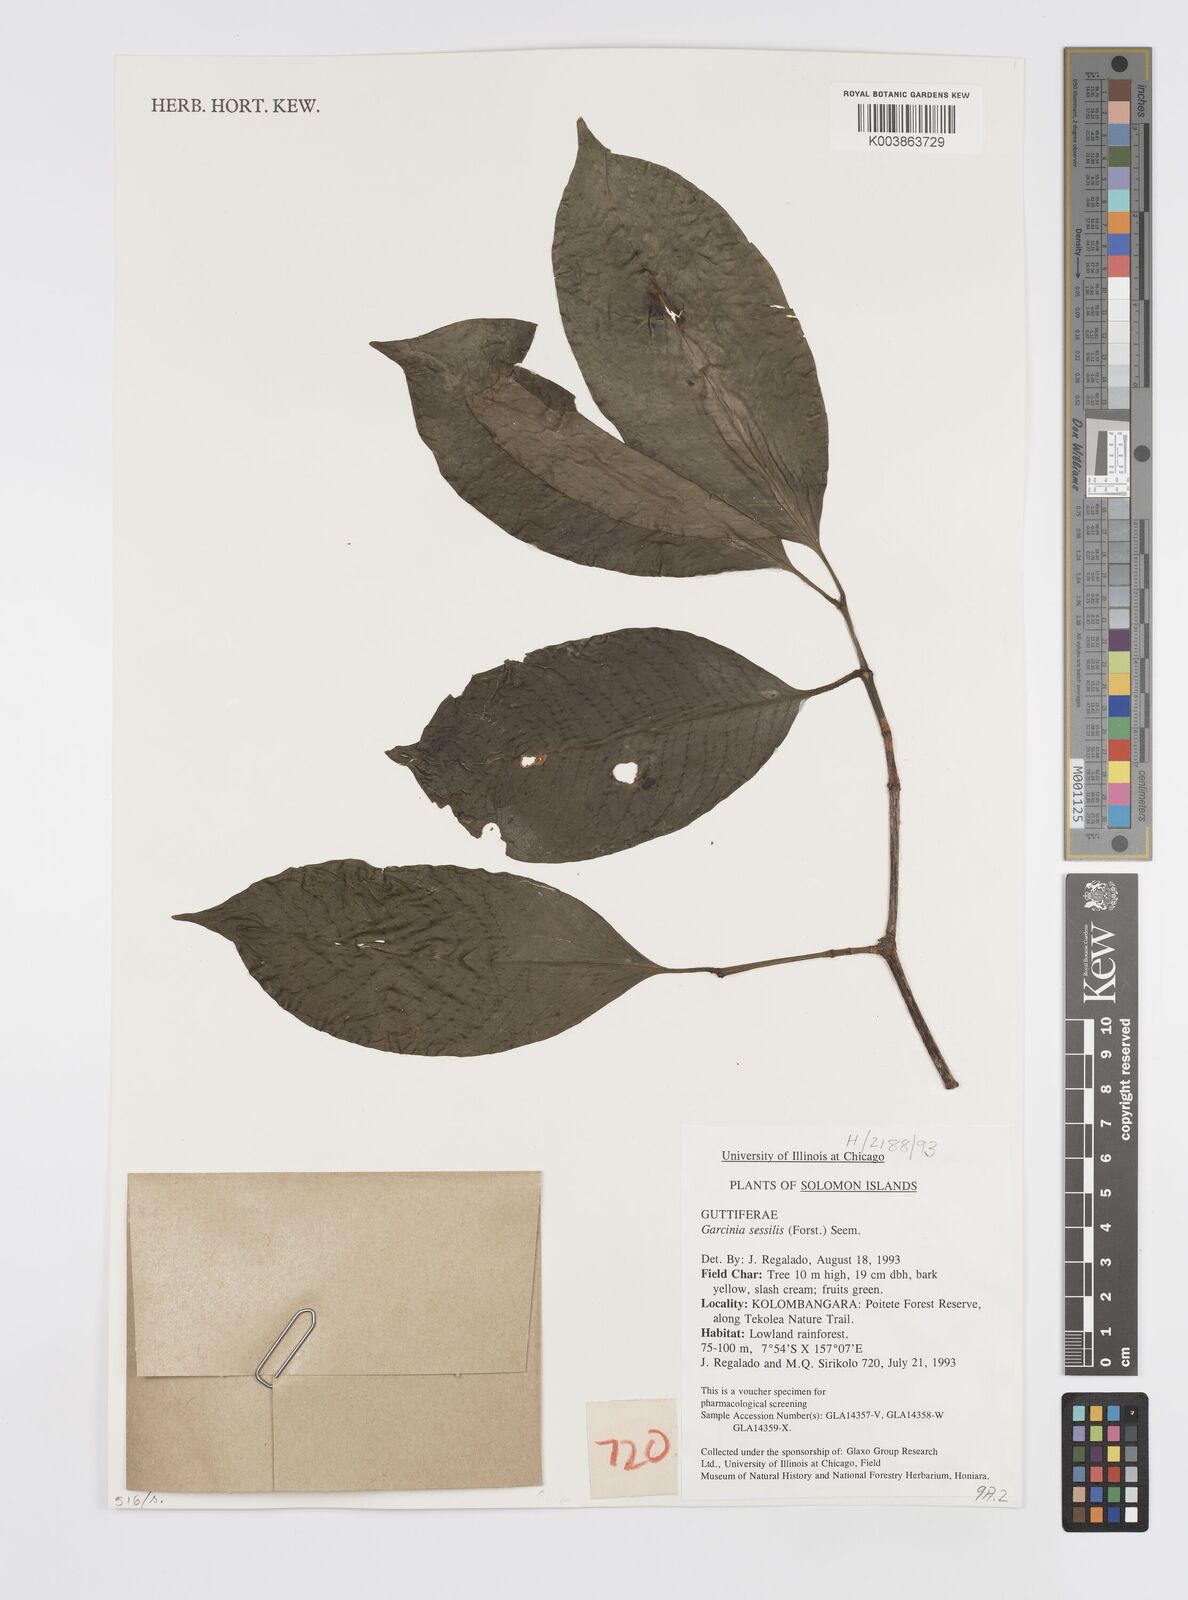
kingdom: Plantae
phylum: Tracheophyta
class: Magnoliopsida
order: Malpighiales
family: Clusiaceae
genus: Garcinia
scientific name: Garcinia sessilis
